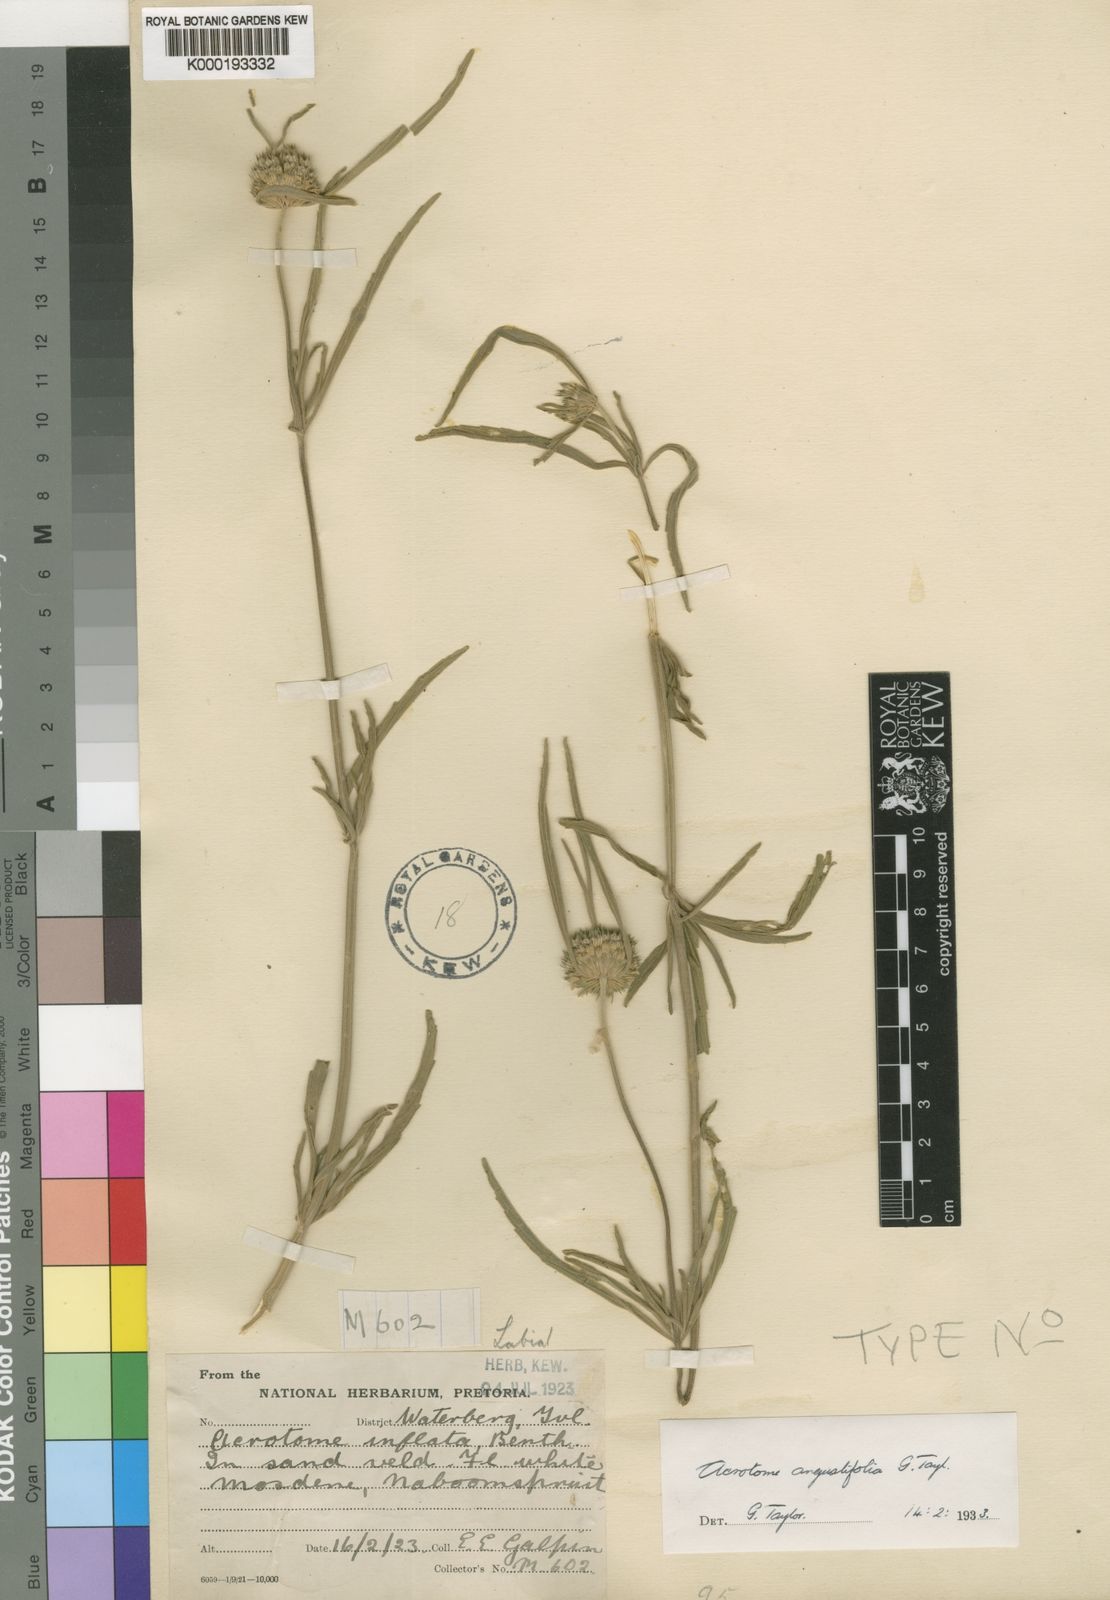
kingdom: Plantae
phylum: Tracheophyta
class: Magnoliopsida
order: Lamiales
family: Lamiaceae
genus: Acrotome
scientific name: Acrotome angustifolia
